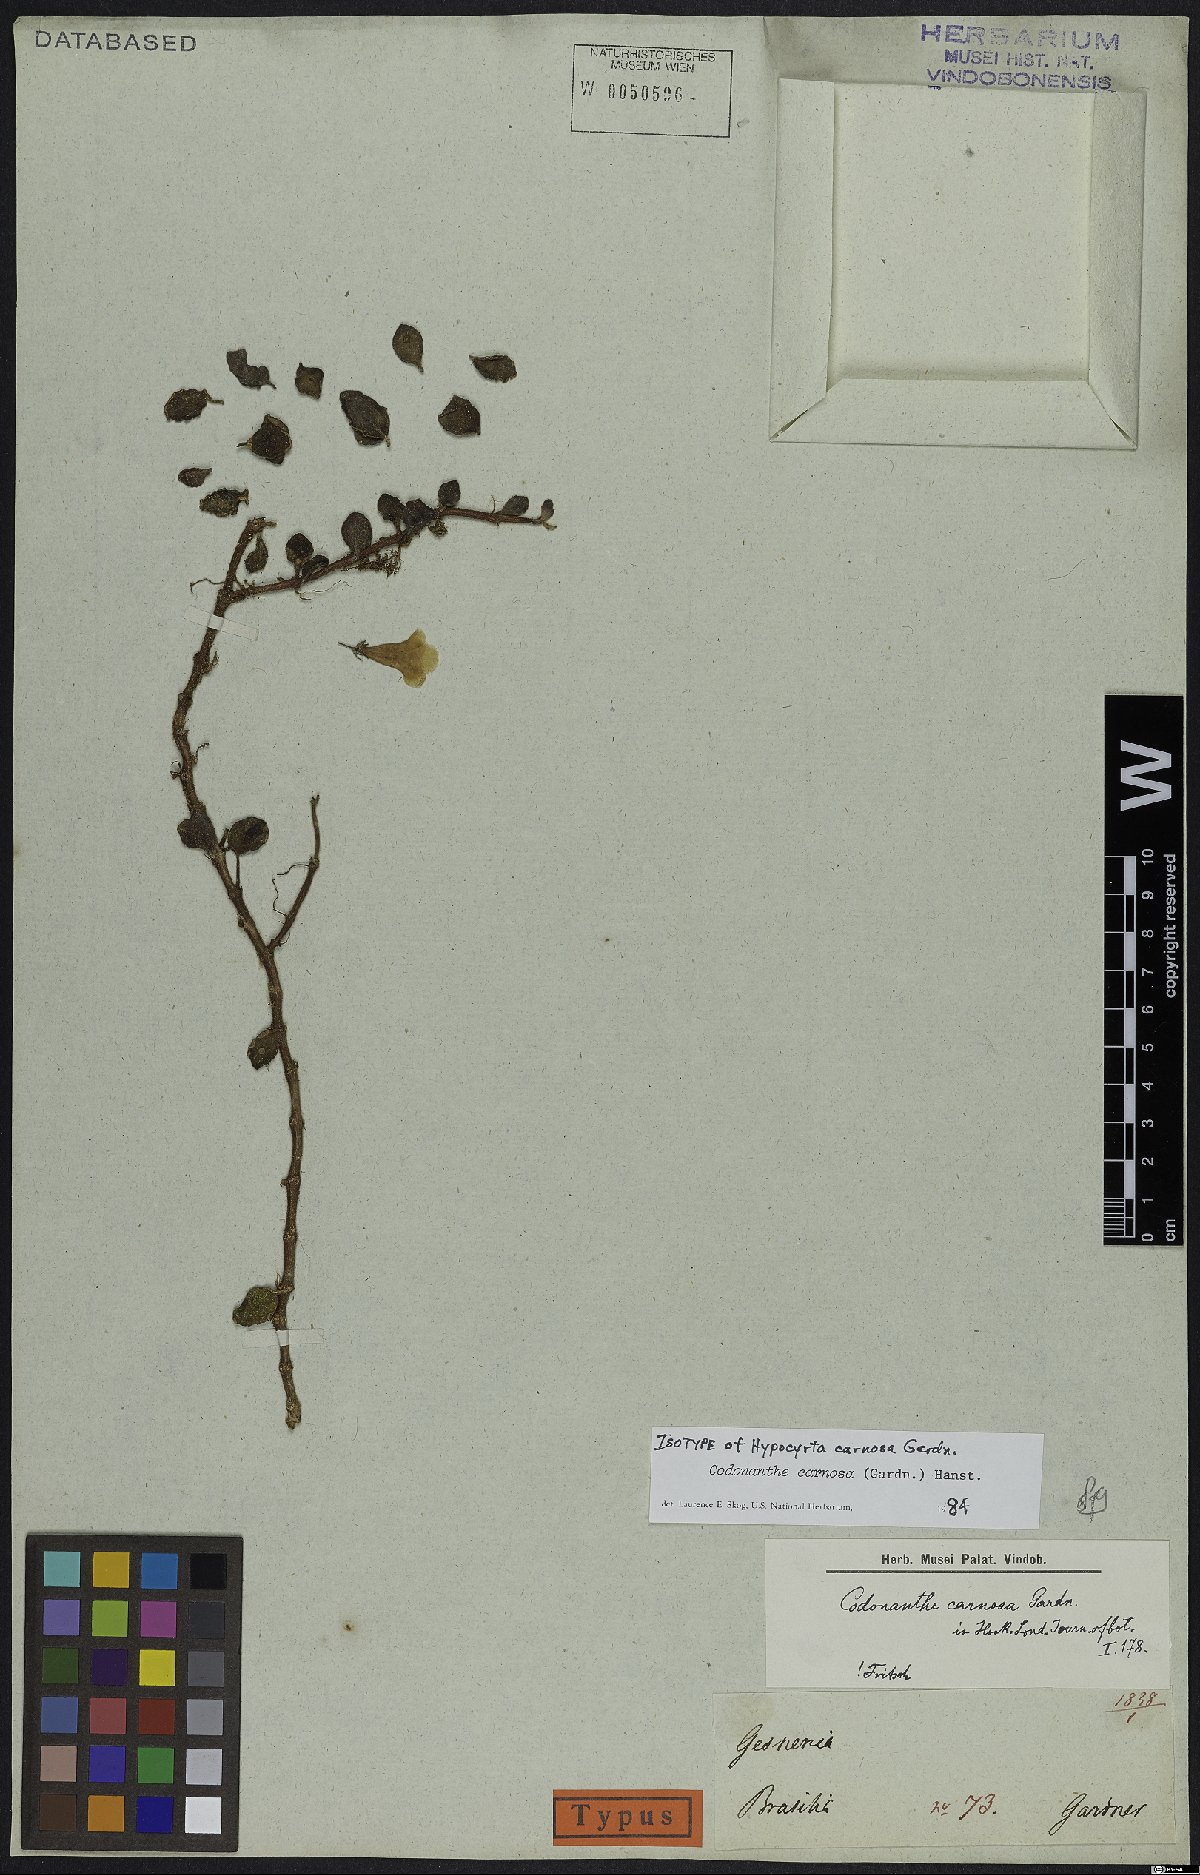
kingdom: Plantae
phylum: Tracheophyta
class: Magnoliopsida
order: Lamiales
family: Gesneriaceae
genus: Codonanthe
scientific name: Codonanthe carnosa
